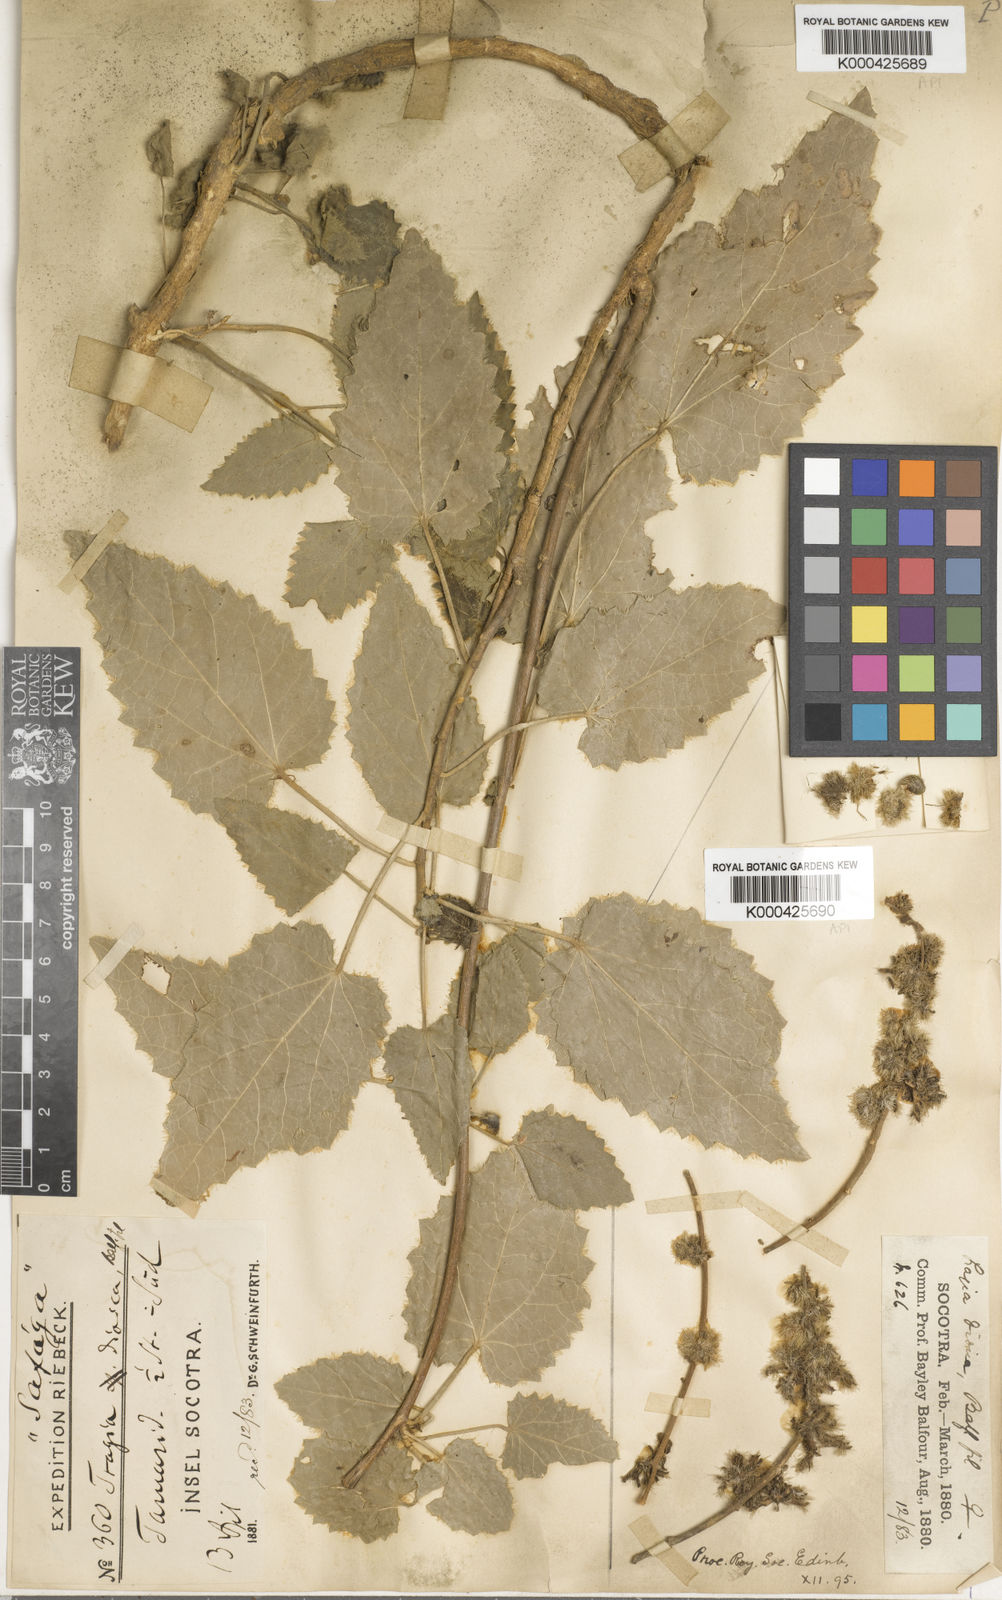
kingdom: Plantae
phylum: Tracheophyta
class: Magnoliopsida
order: Malpighiales
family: Euphorbiaceae
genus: Tragia
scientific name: Tragia
